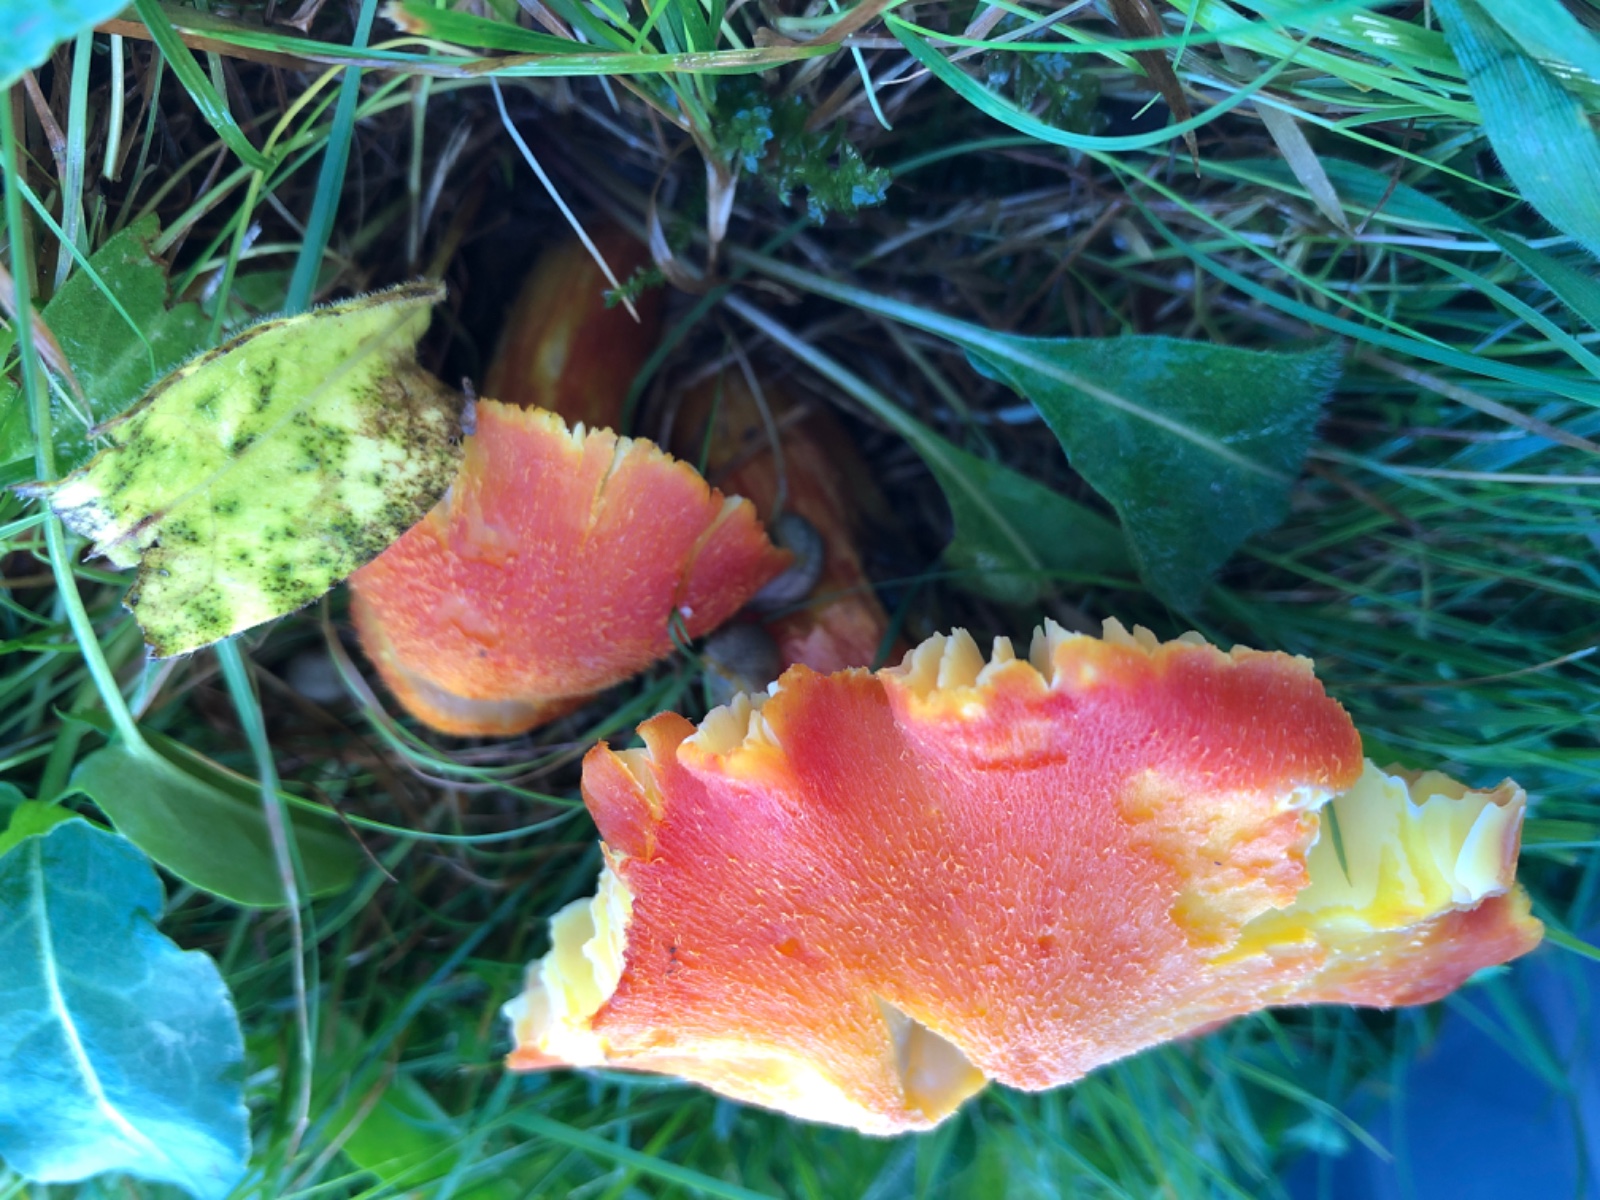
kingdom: Fungi
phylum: Basidiomycota
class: Agaricomycetes
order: Agaricales
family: Hygrophoraceae
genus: Hygrocybe
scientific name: Hygrocybe intermedia
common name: trævlet vokshat
